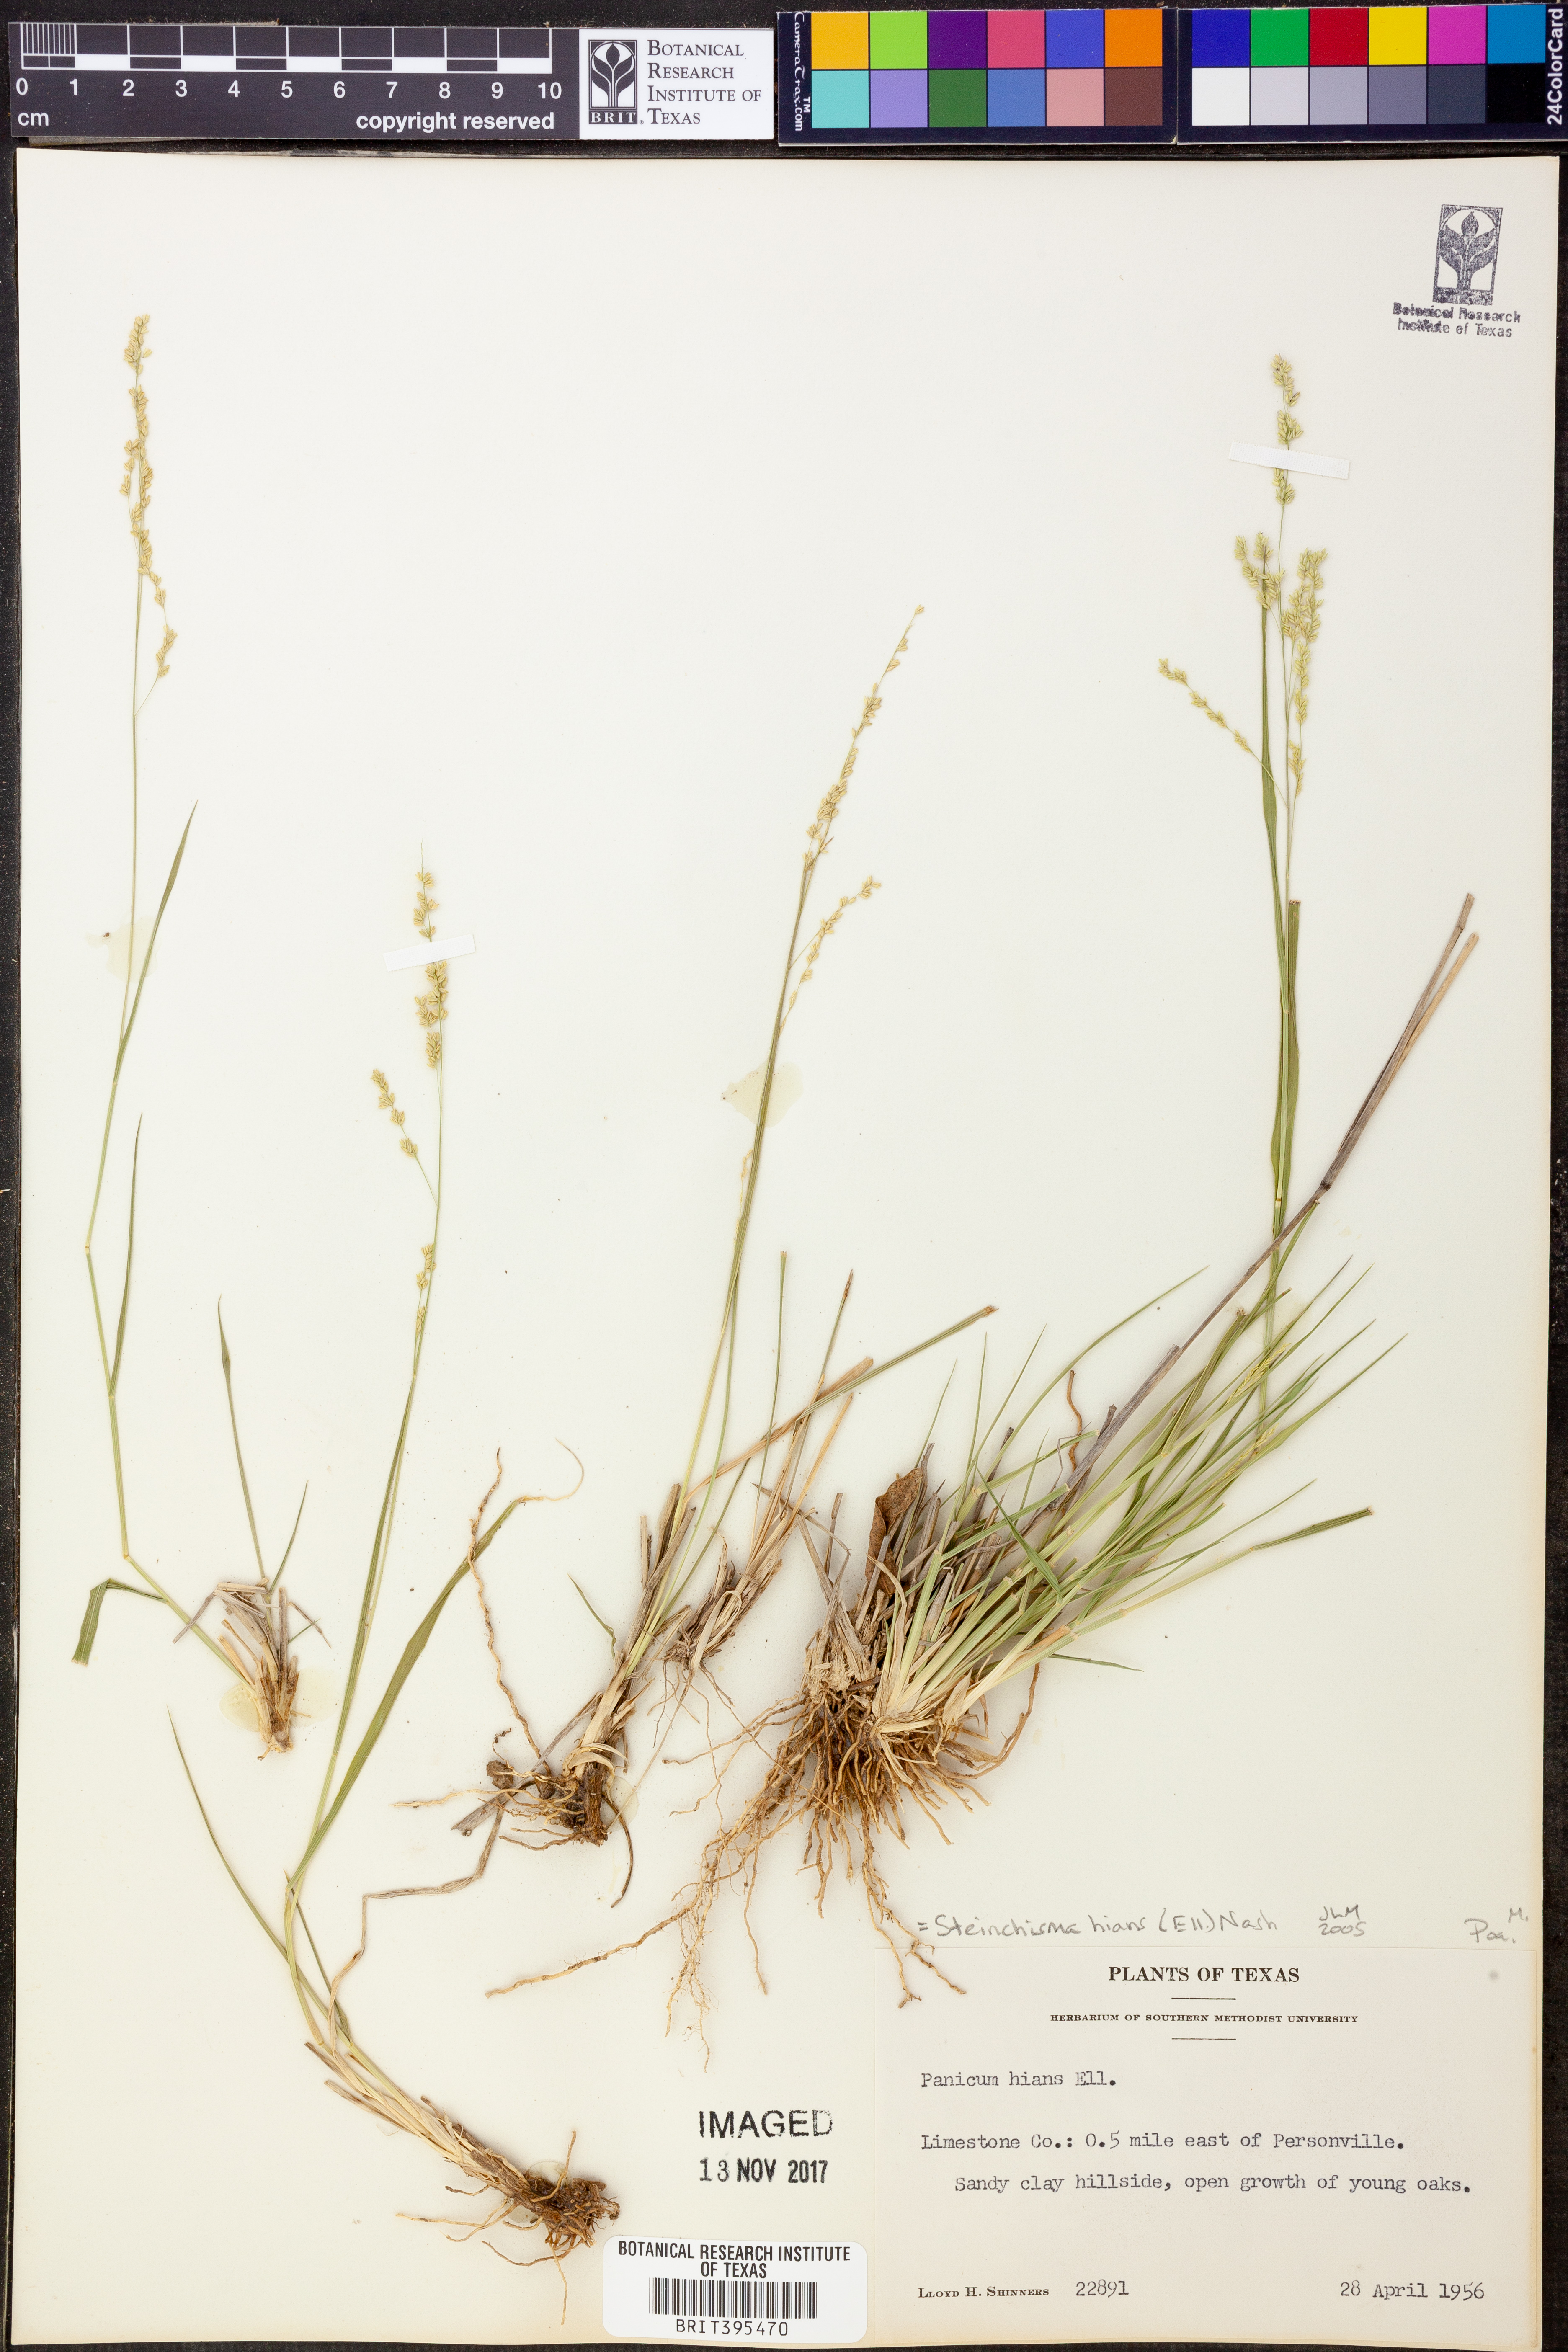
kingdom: Plantae
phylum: Tracheophyta
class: Liliopsida
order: Poales
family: Poaceae
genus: Steinchisma
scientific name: Steinchisma hians
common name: Gaping panic grass
